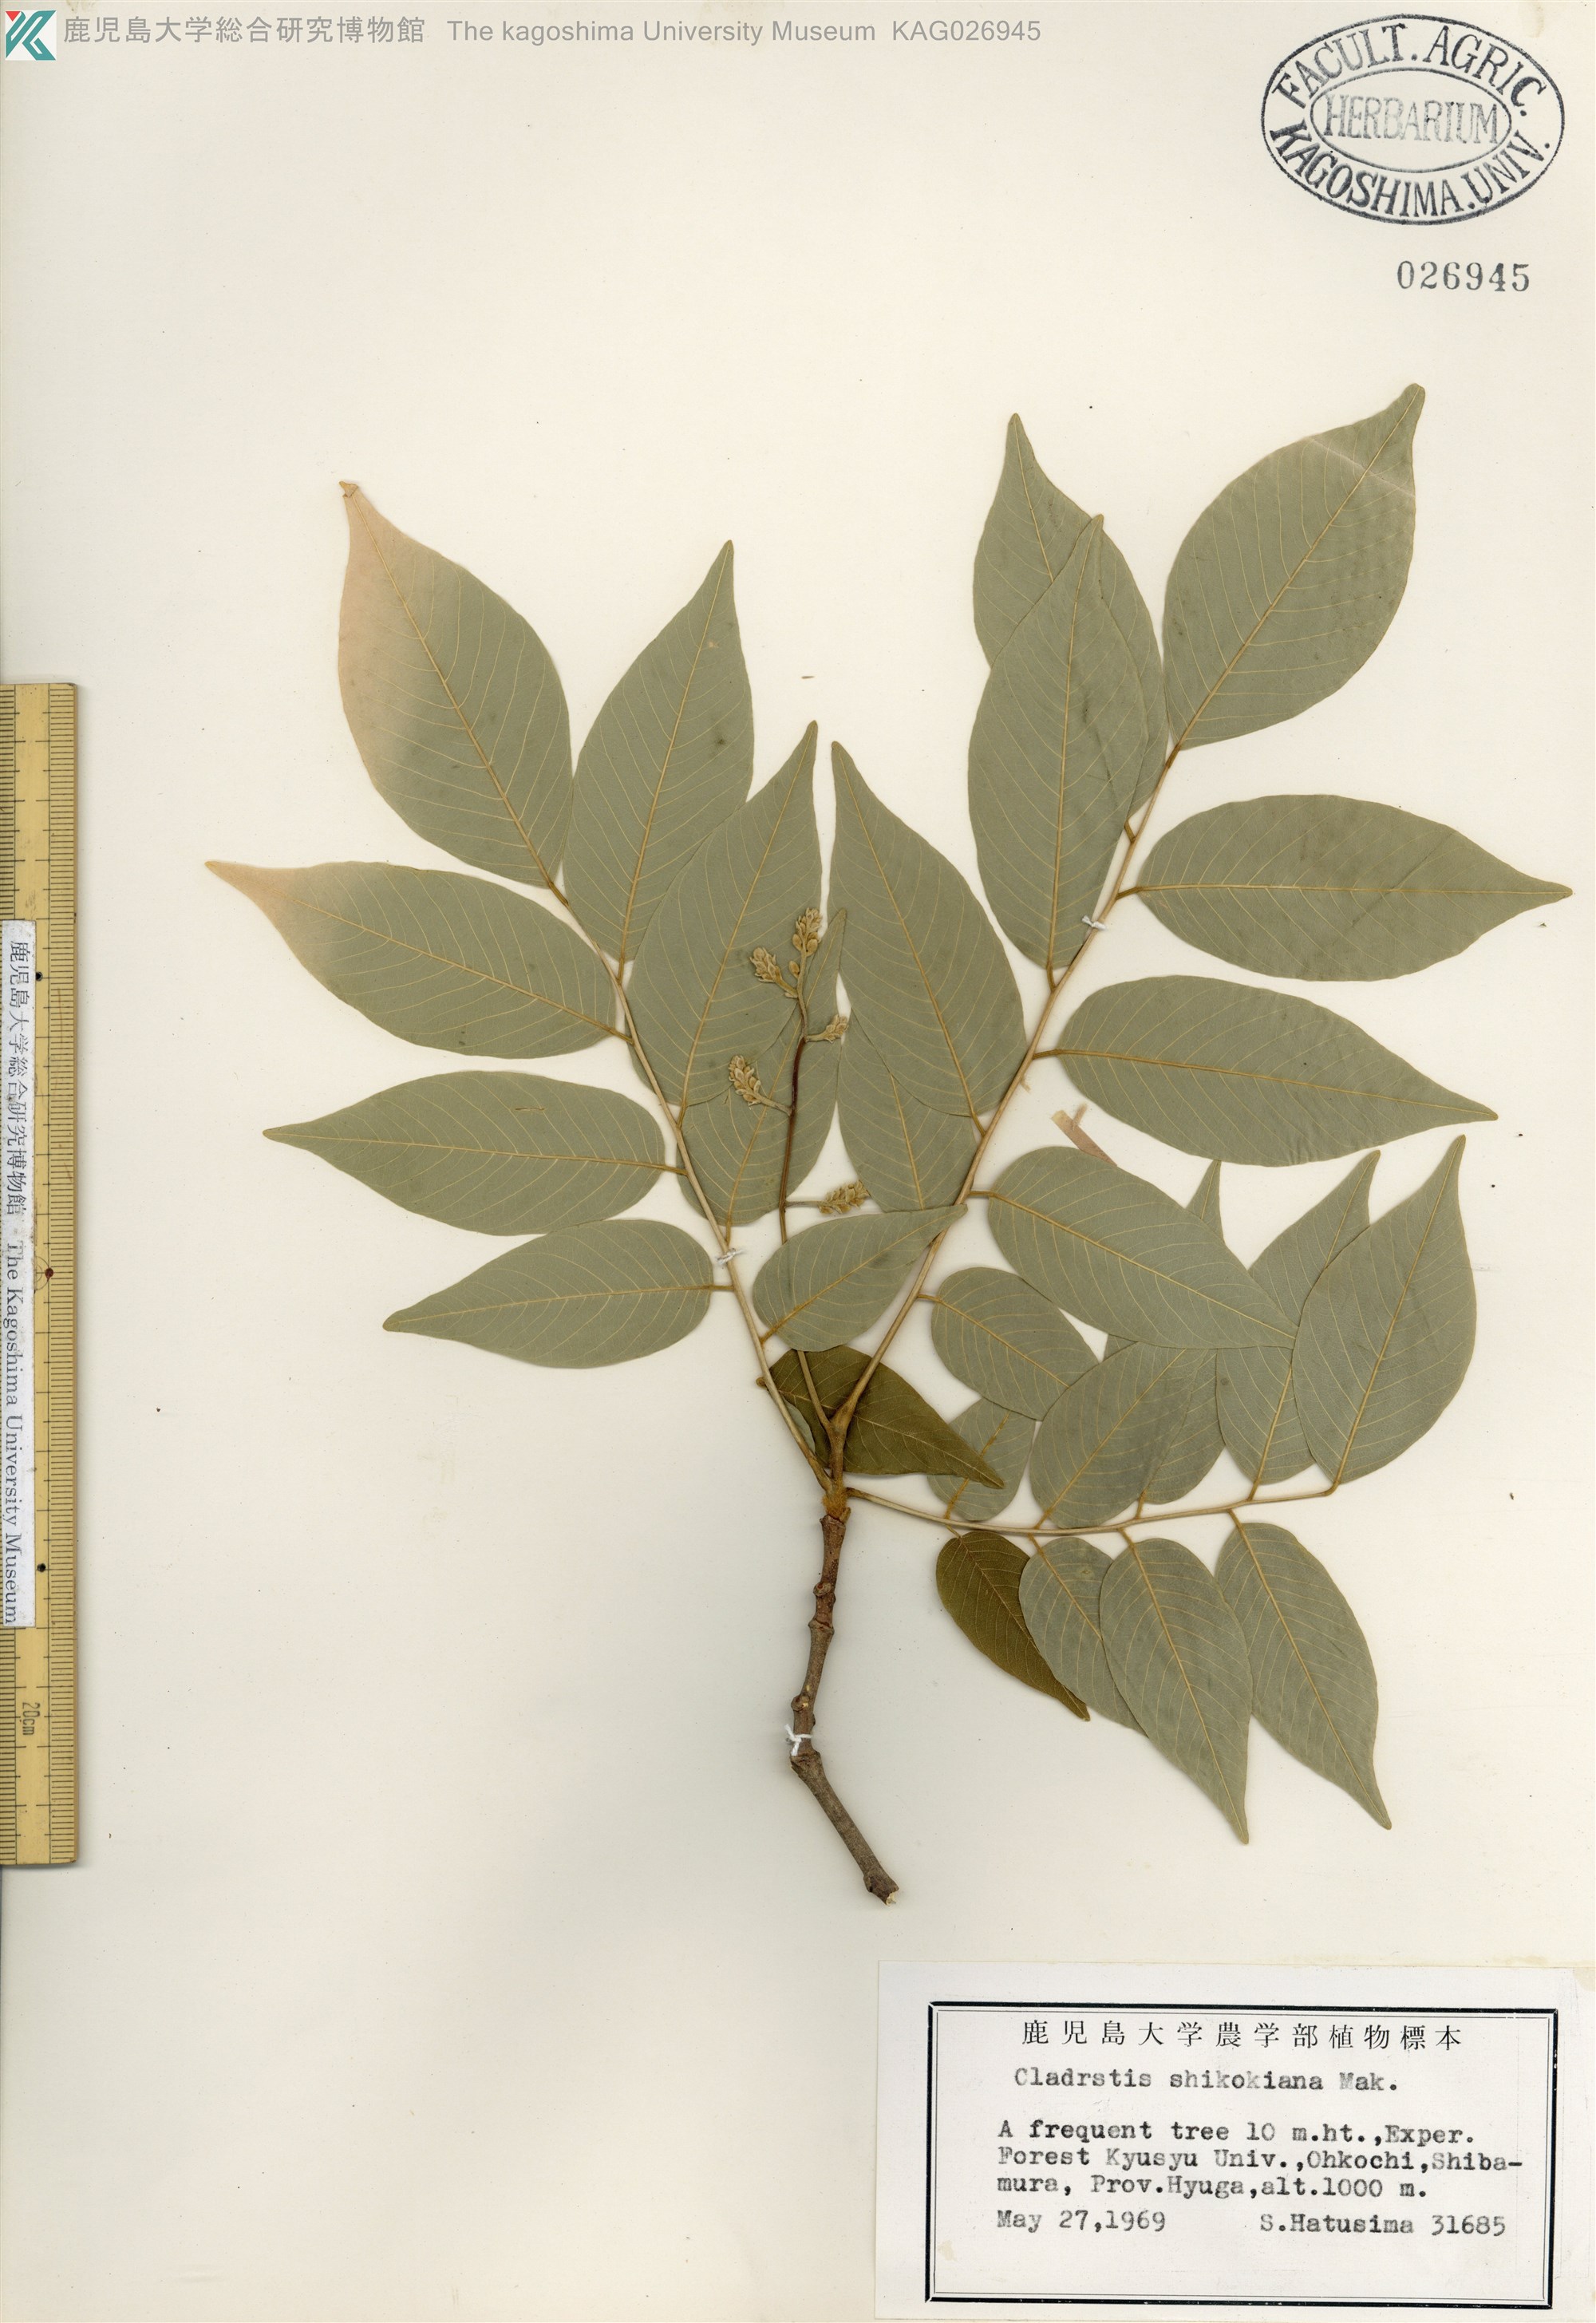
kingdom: Plantae
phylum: Tracheophyta
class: Magnoliopsida
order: Fabales
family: Fabaceae
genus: Cladrastis
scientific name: Cladrastis shikokiana
